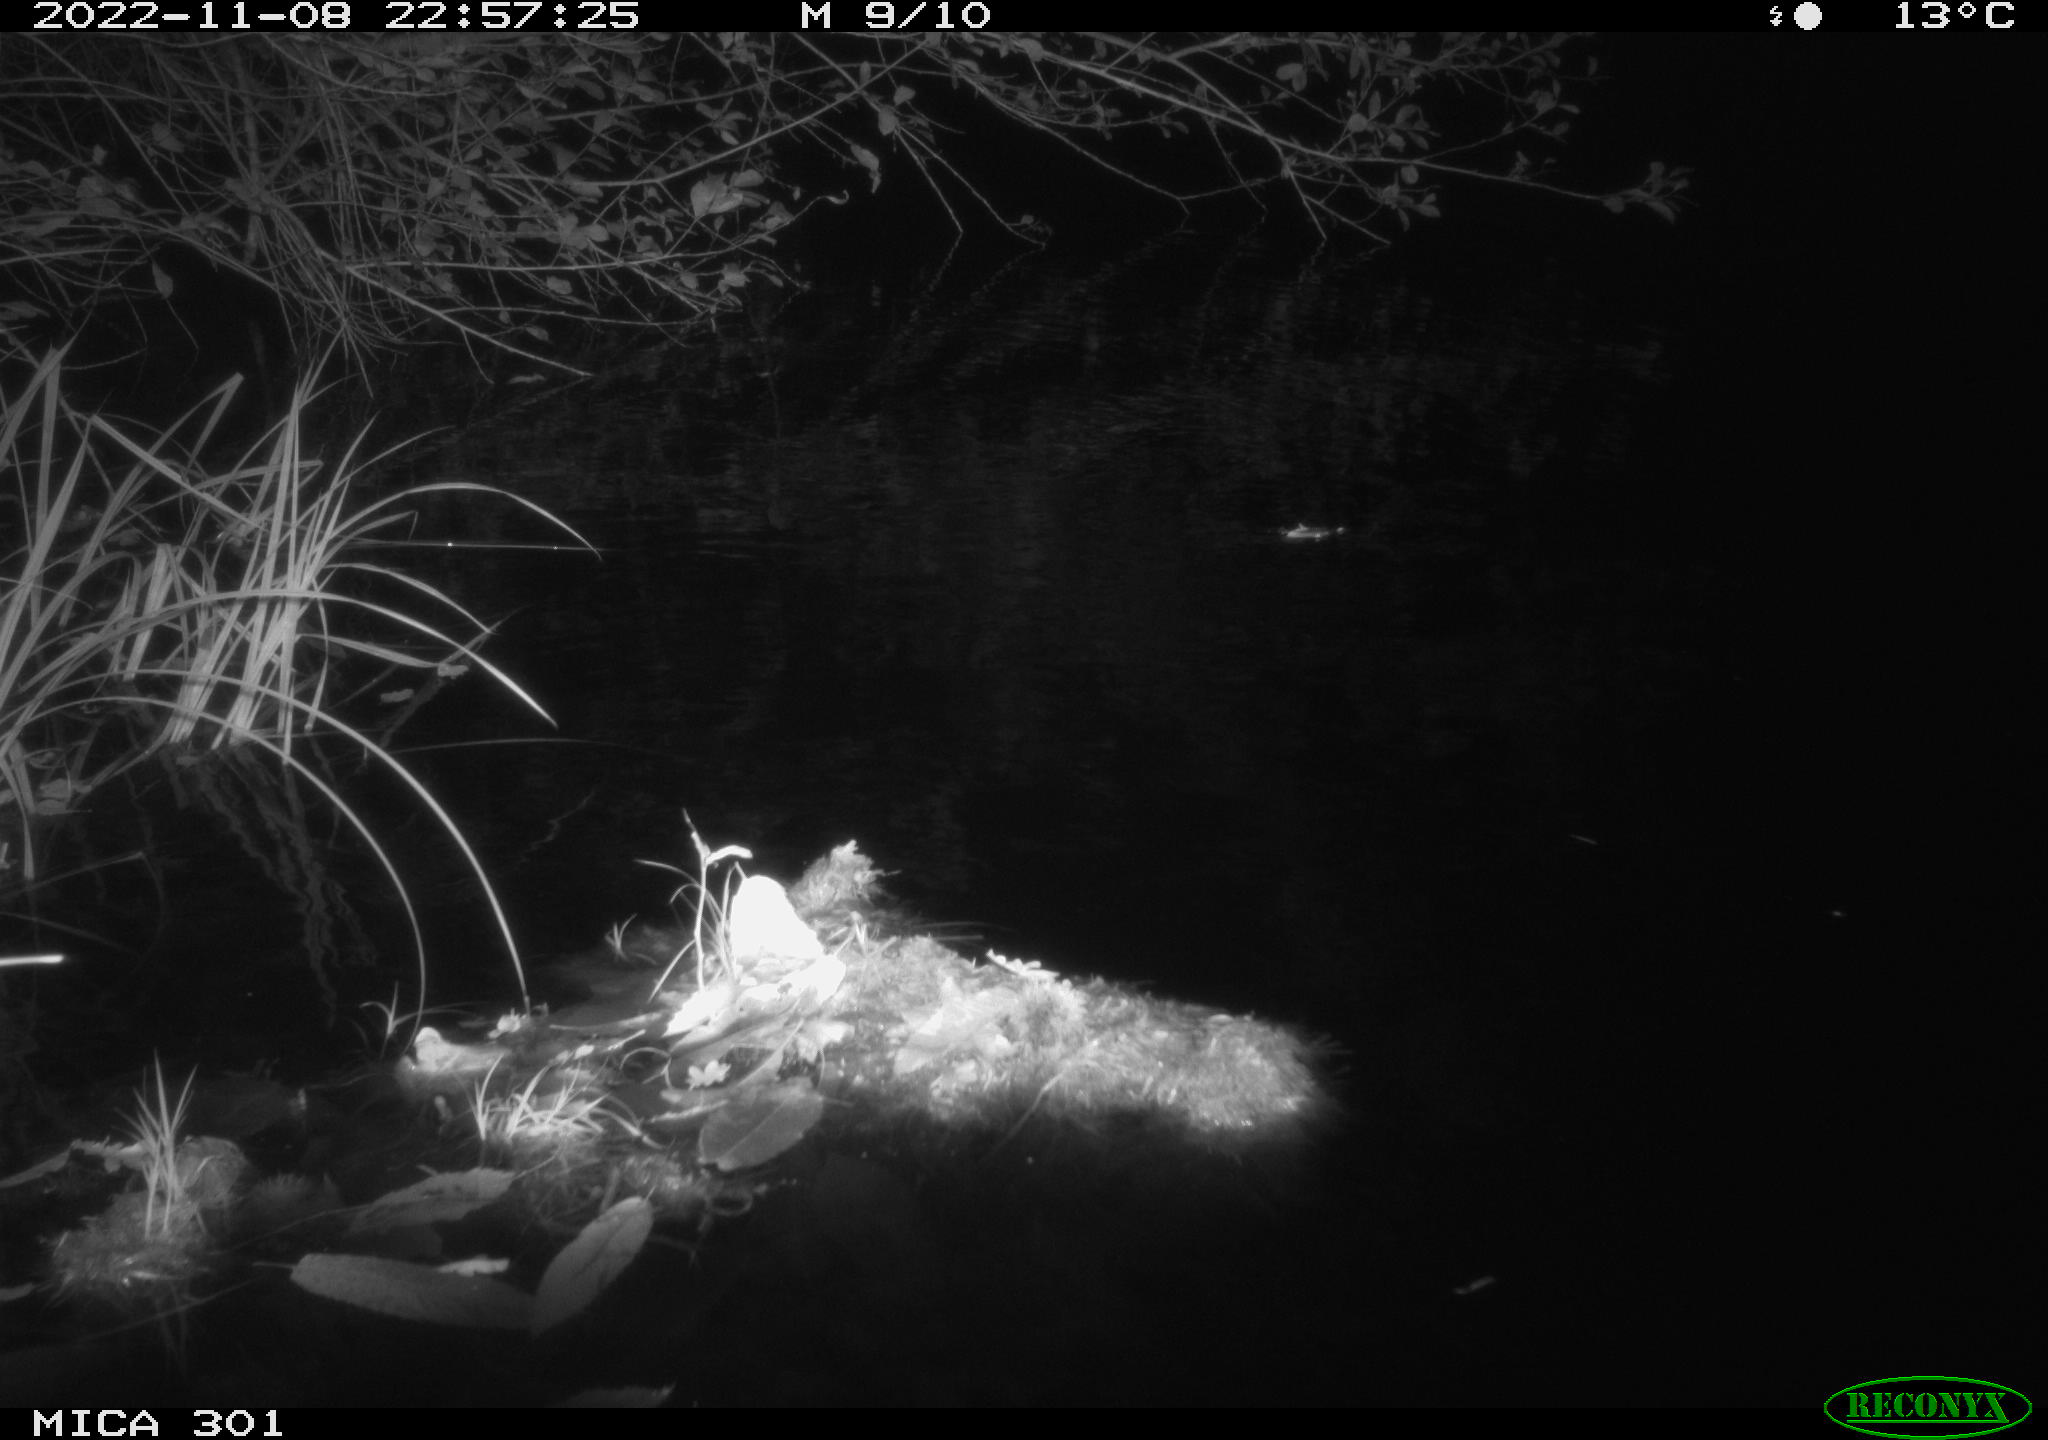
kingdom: Animalia
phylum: Chordata
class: Mammalia
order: Rodentia
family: Castoridae
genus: Castor
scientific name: Castor fiber
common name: Eurasian beaver
